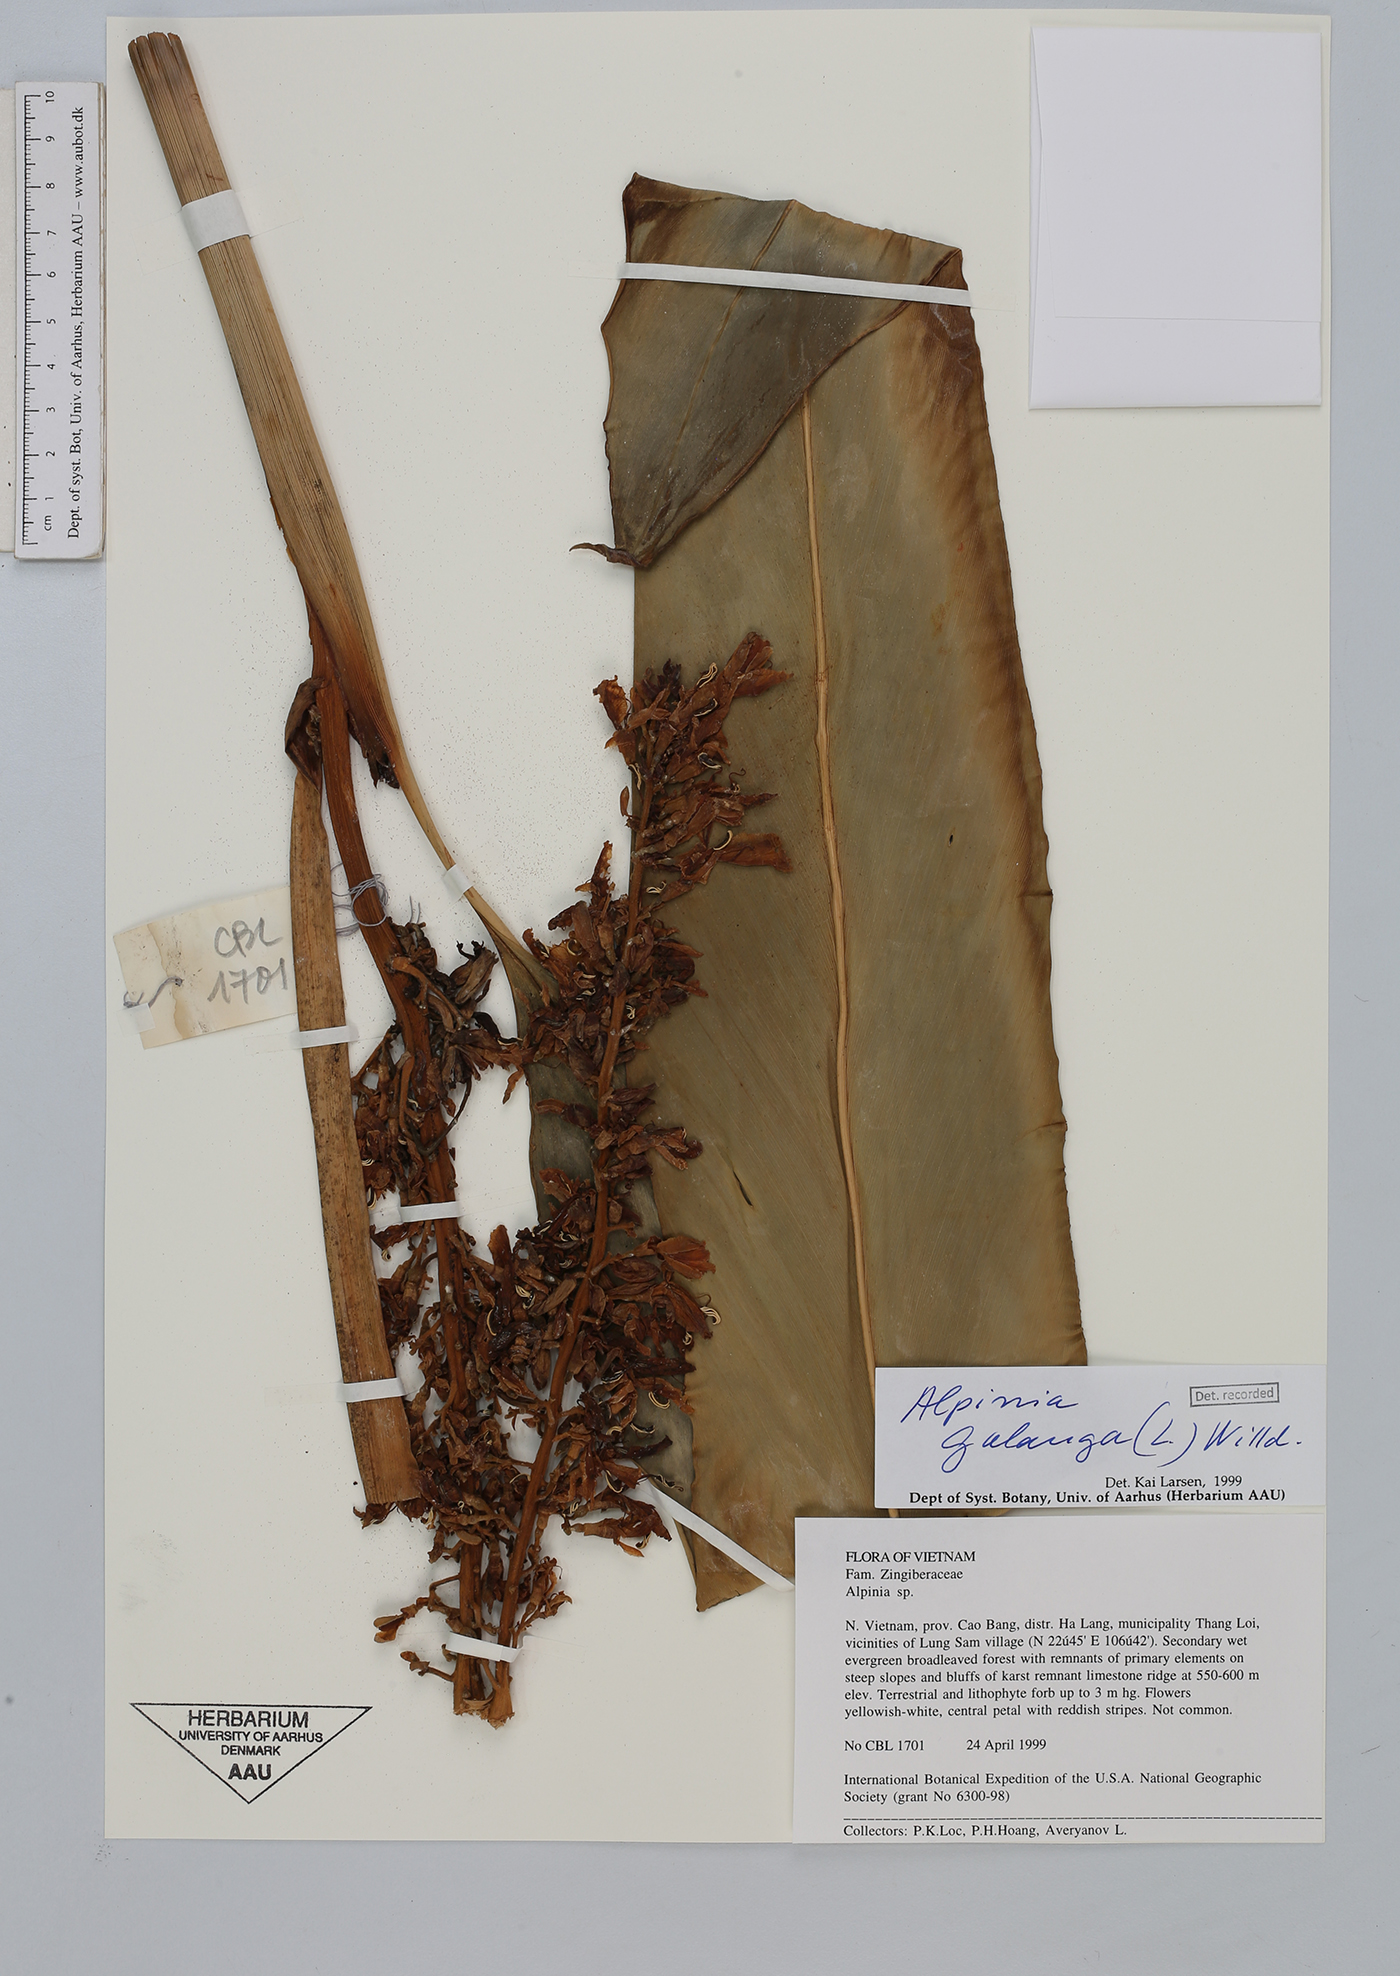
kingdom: Plantae
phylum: Tracheophyta
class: Liliopsida
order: Zingiberales
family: Zingiberaceae
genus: Alpinia
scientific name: Alpinia galanga
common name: Siamese-ginger
